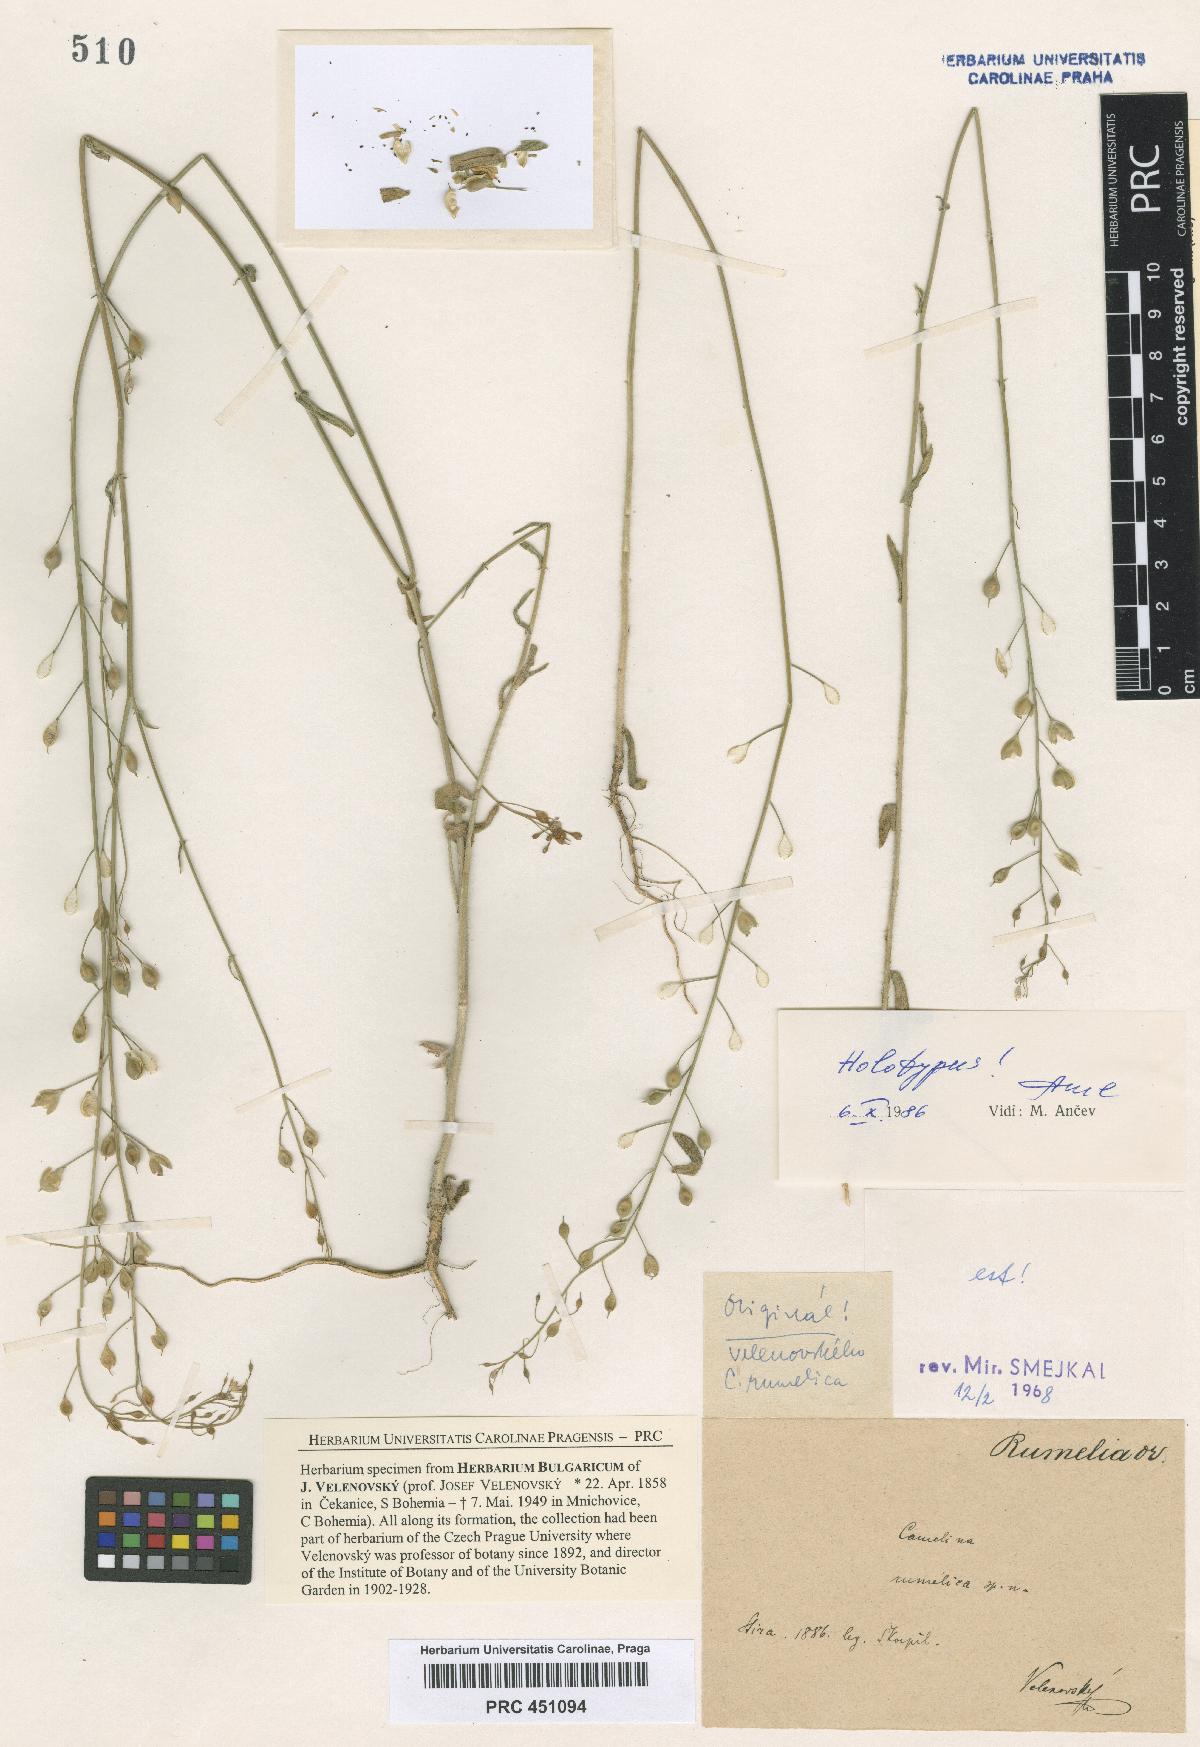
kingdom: Plantae
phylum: Tracheophyta
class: Magnoliopsida
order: Brassicales
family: Brassicaceae
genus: Camelina
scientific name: Camelina rumelica
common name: Graceful false flax
